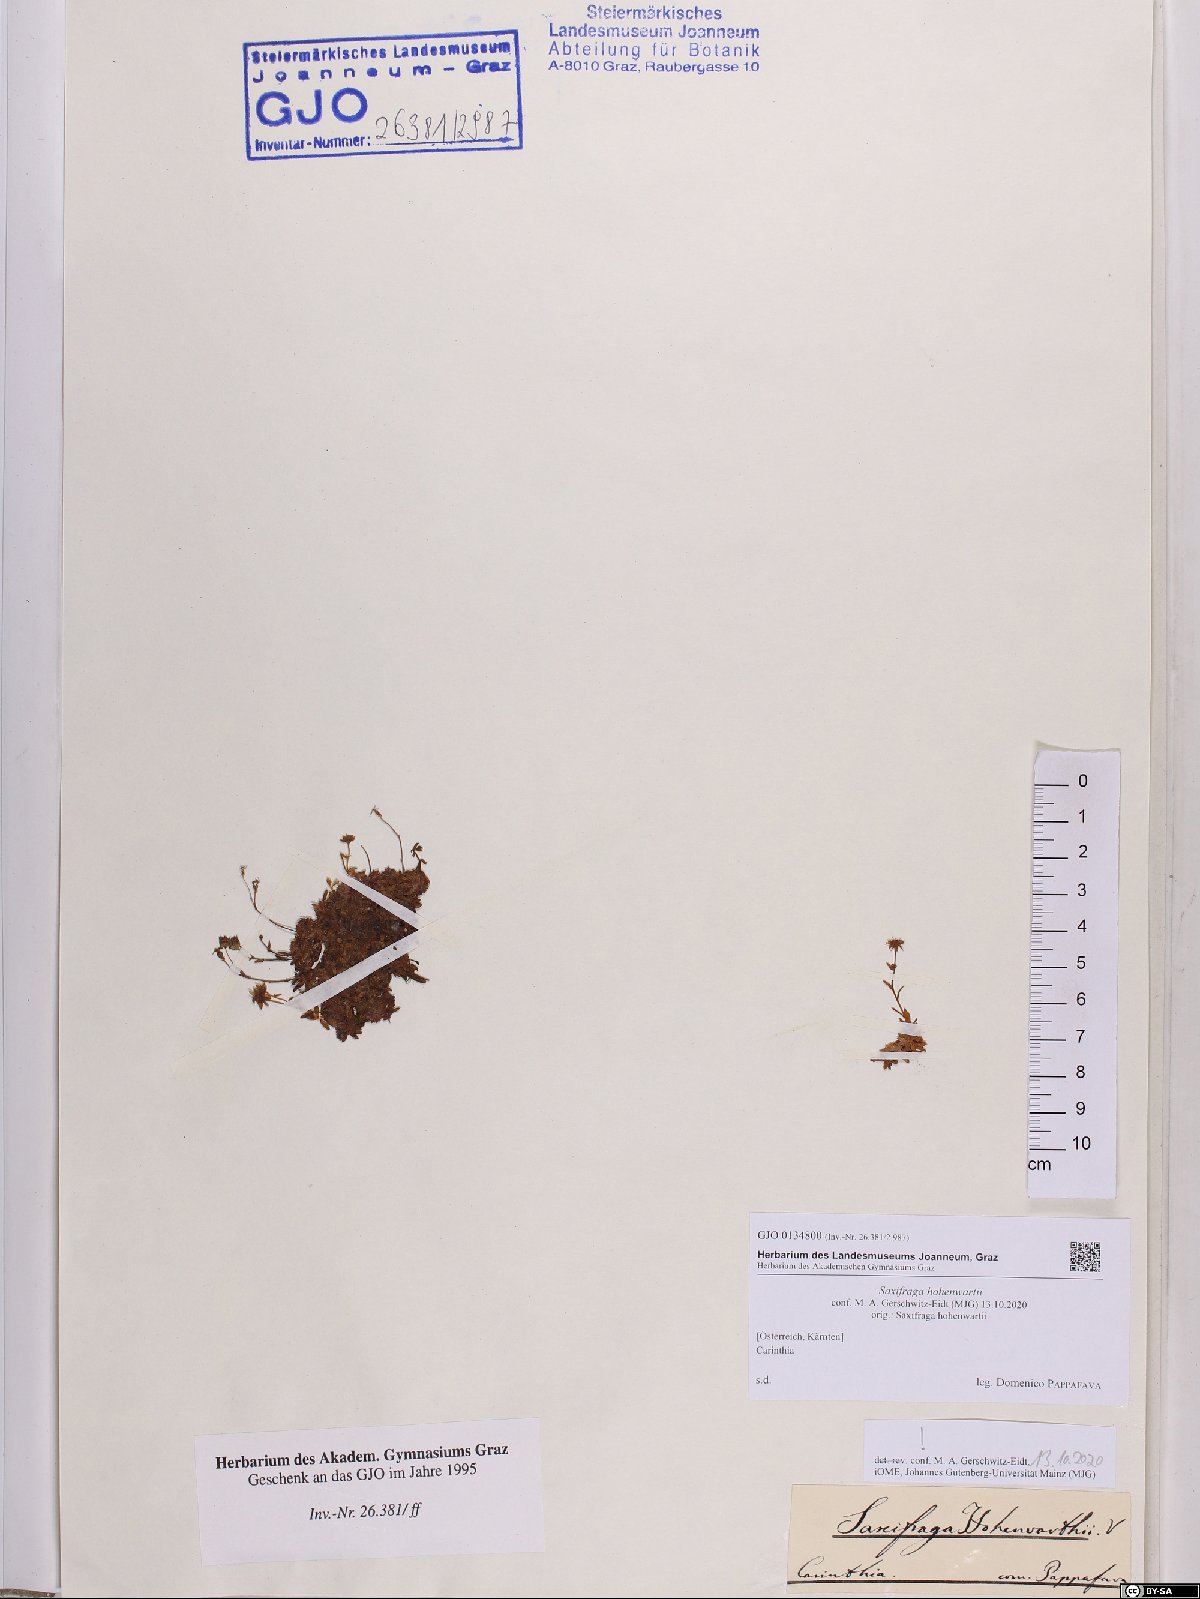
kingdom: Plantae
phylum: Tracheophyta
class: Magnoliopsida
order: Saxifragales
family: Saxifragaceae
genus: Saxifraga
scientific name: Saxifraga hohenwartii
